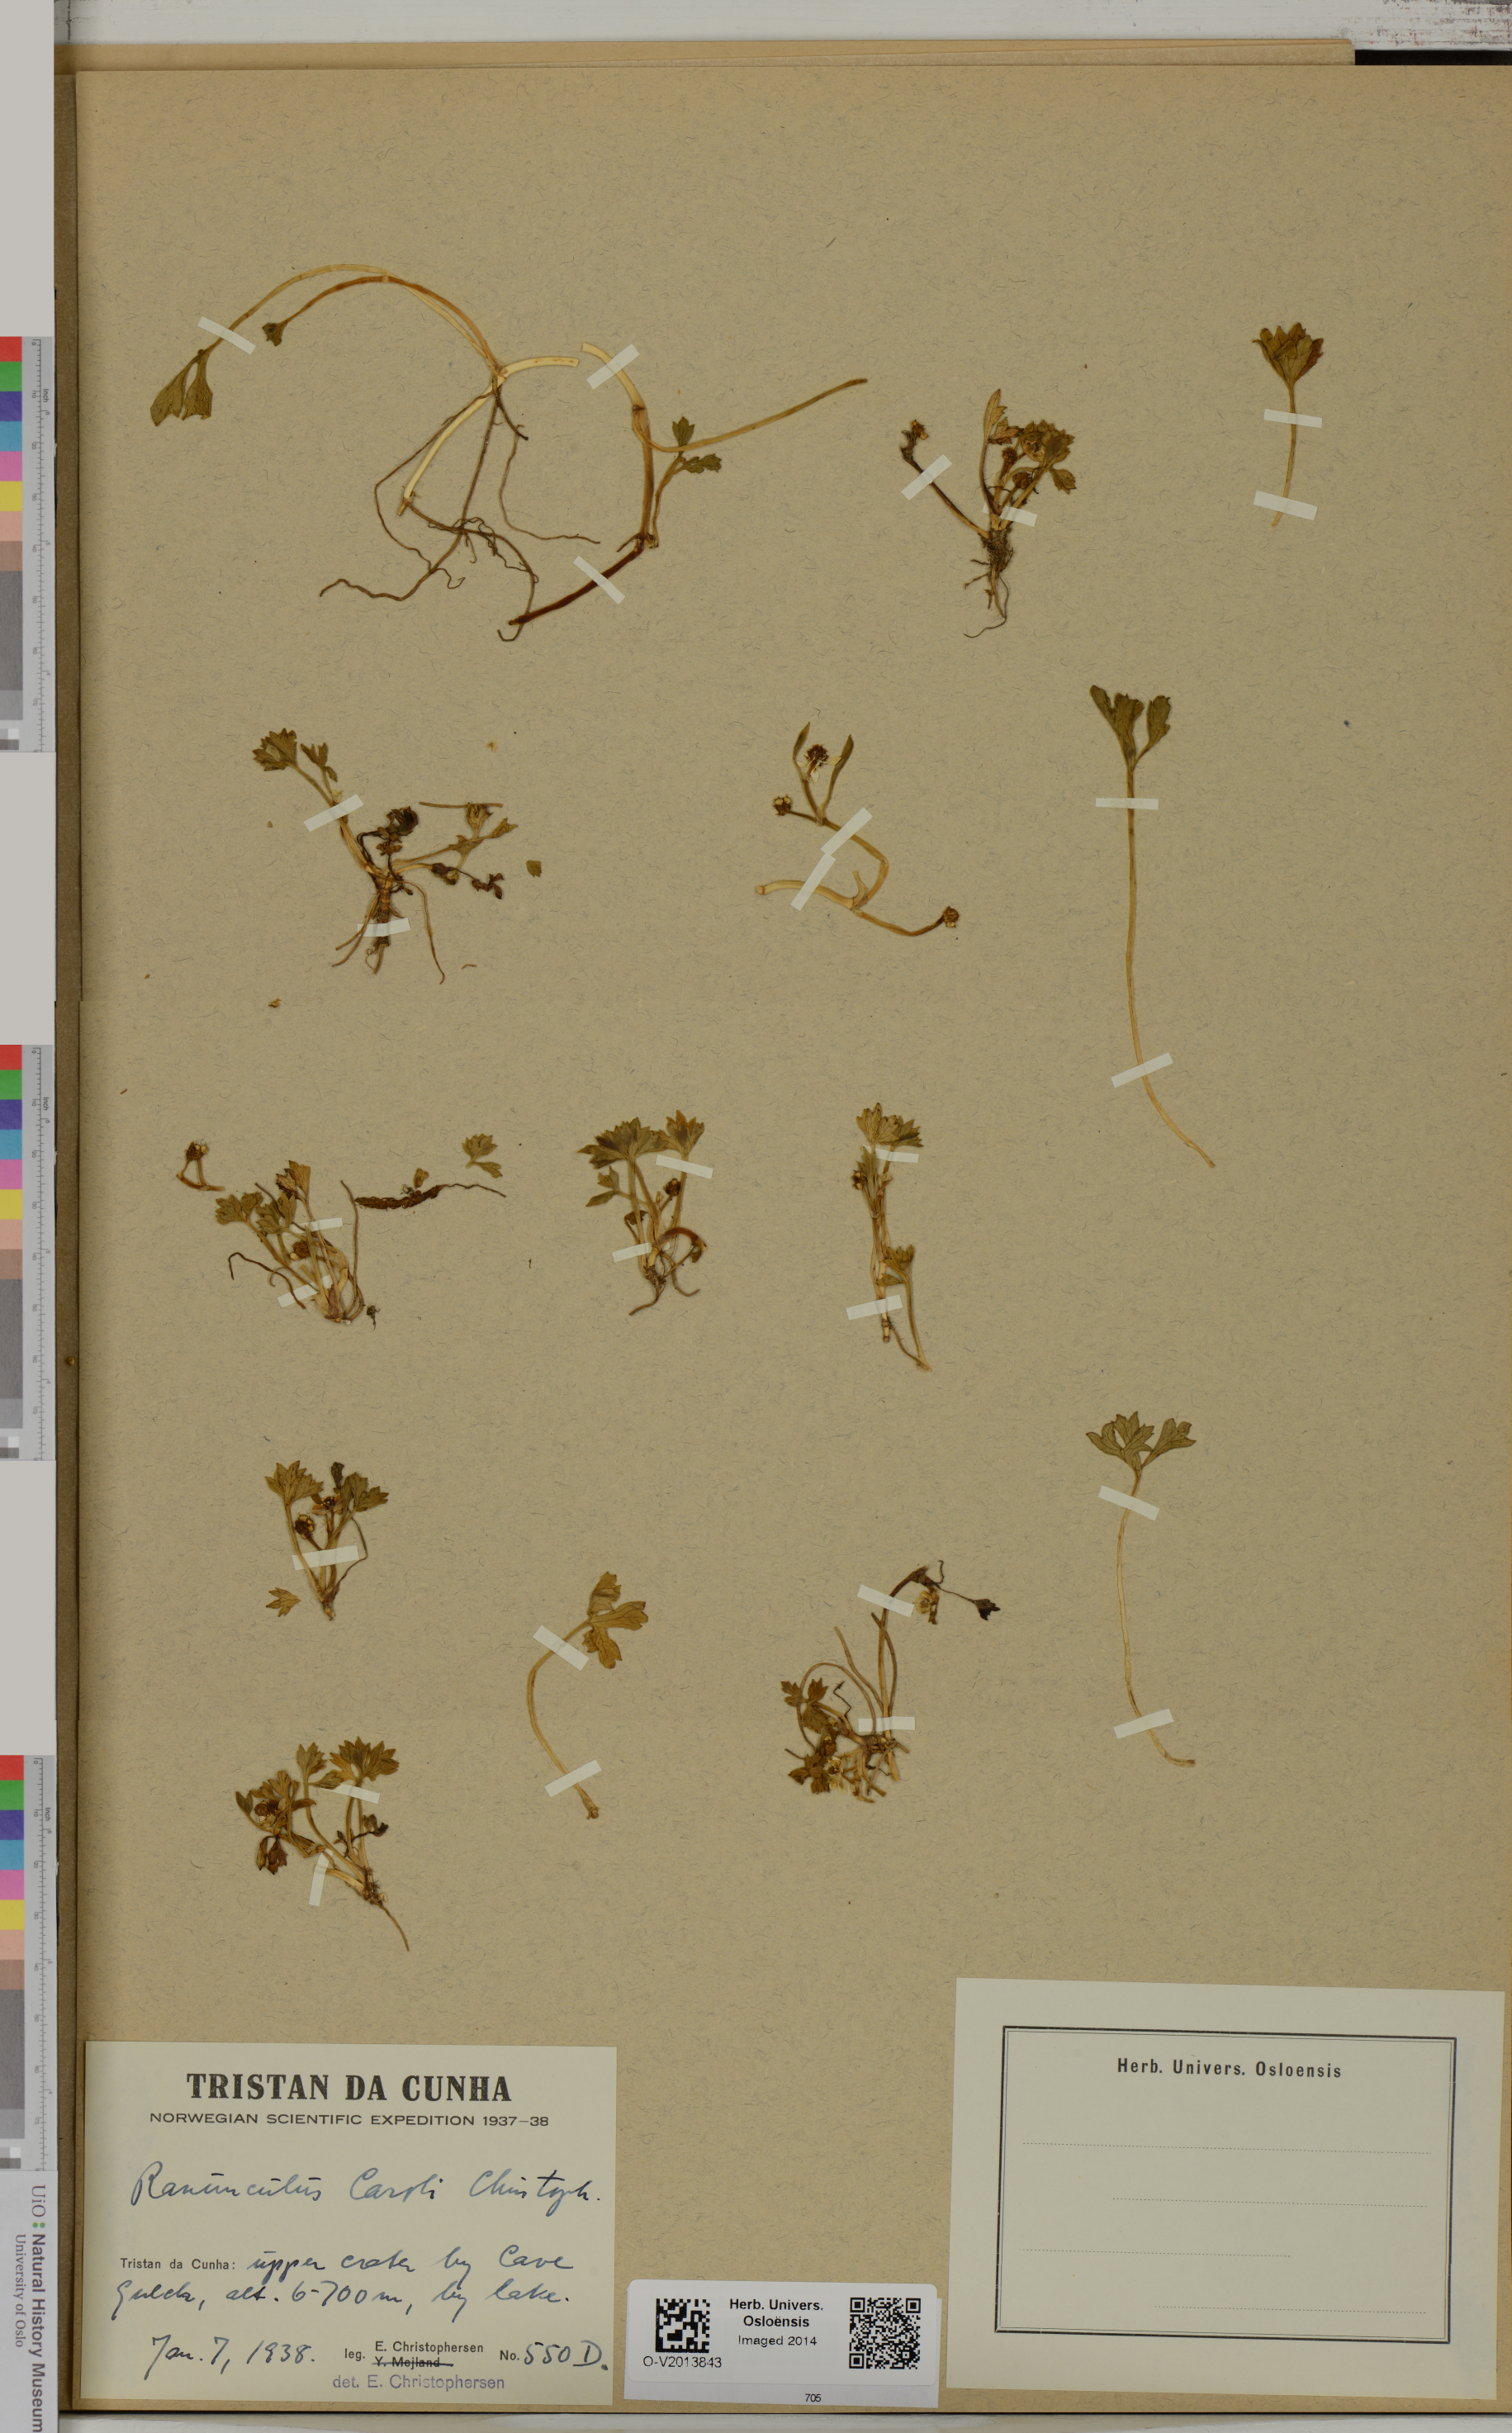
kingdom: Plantae
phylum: Tracheophyta
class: Magnoliopsida
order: Ranunculales
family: Ranunculaceae
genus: Ranunculus
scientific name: Ranunculus caroli
